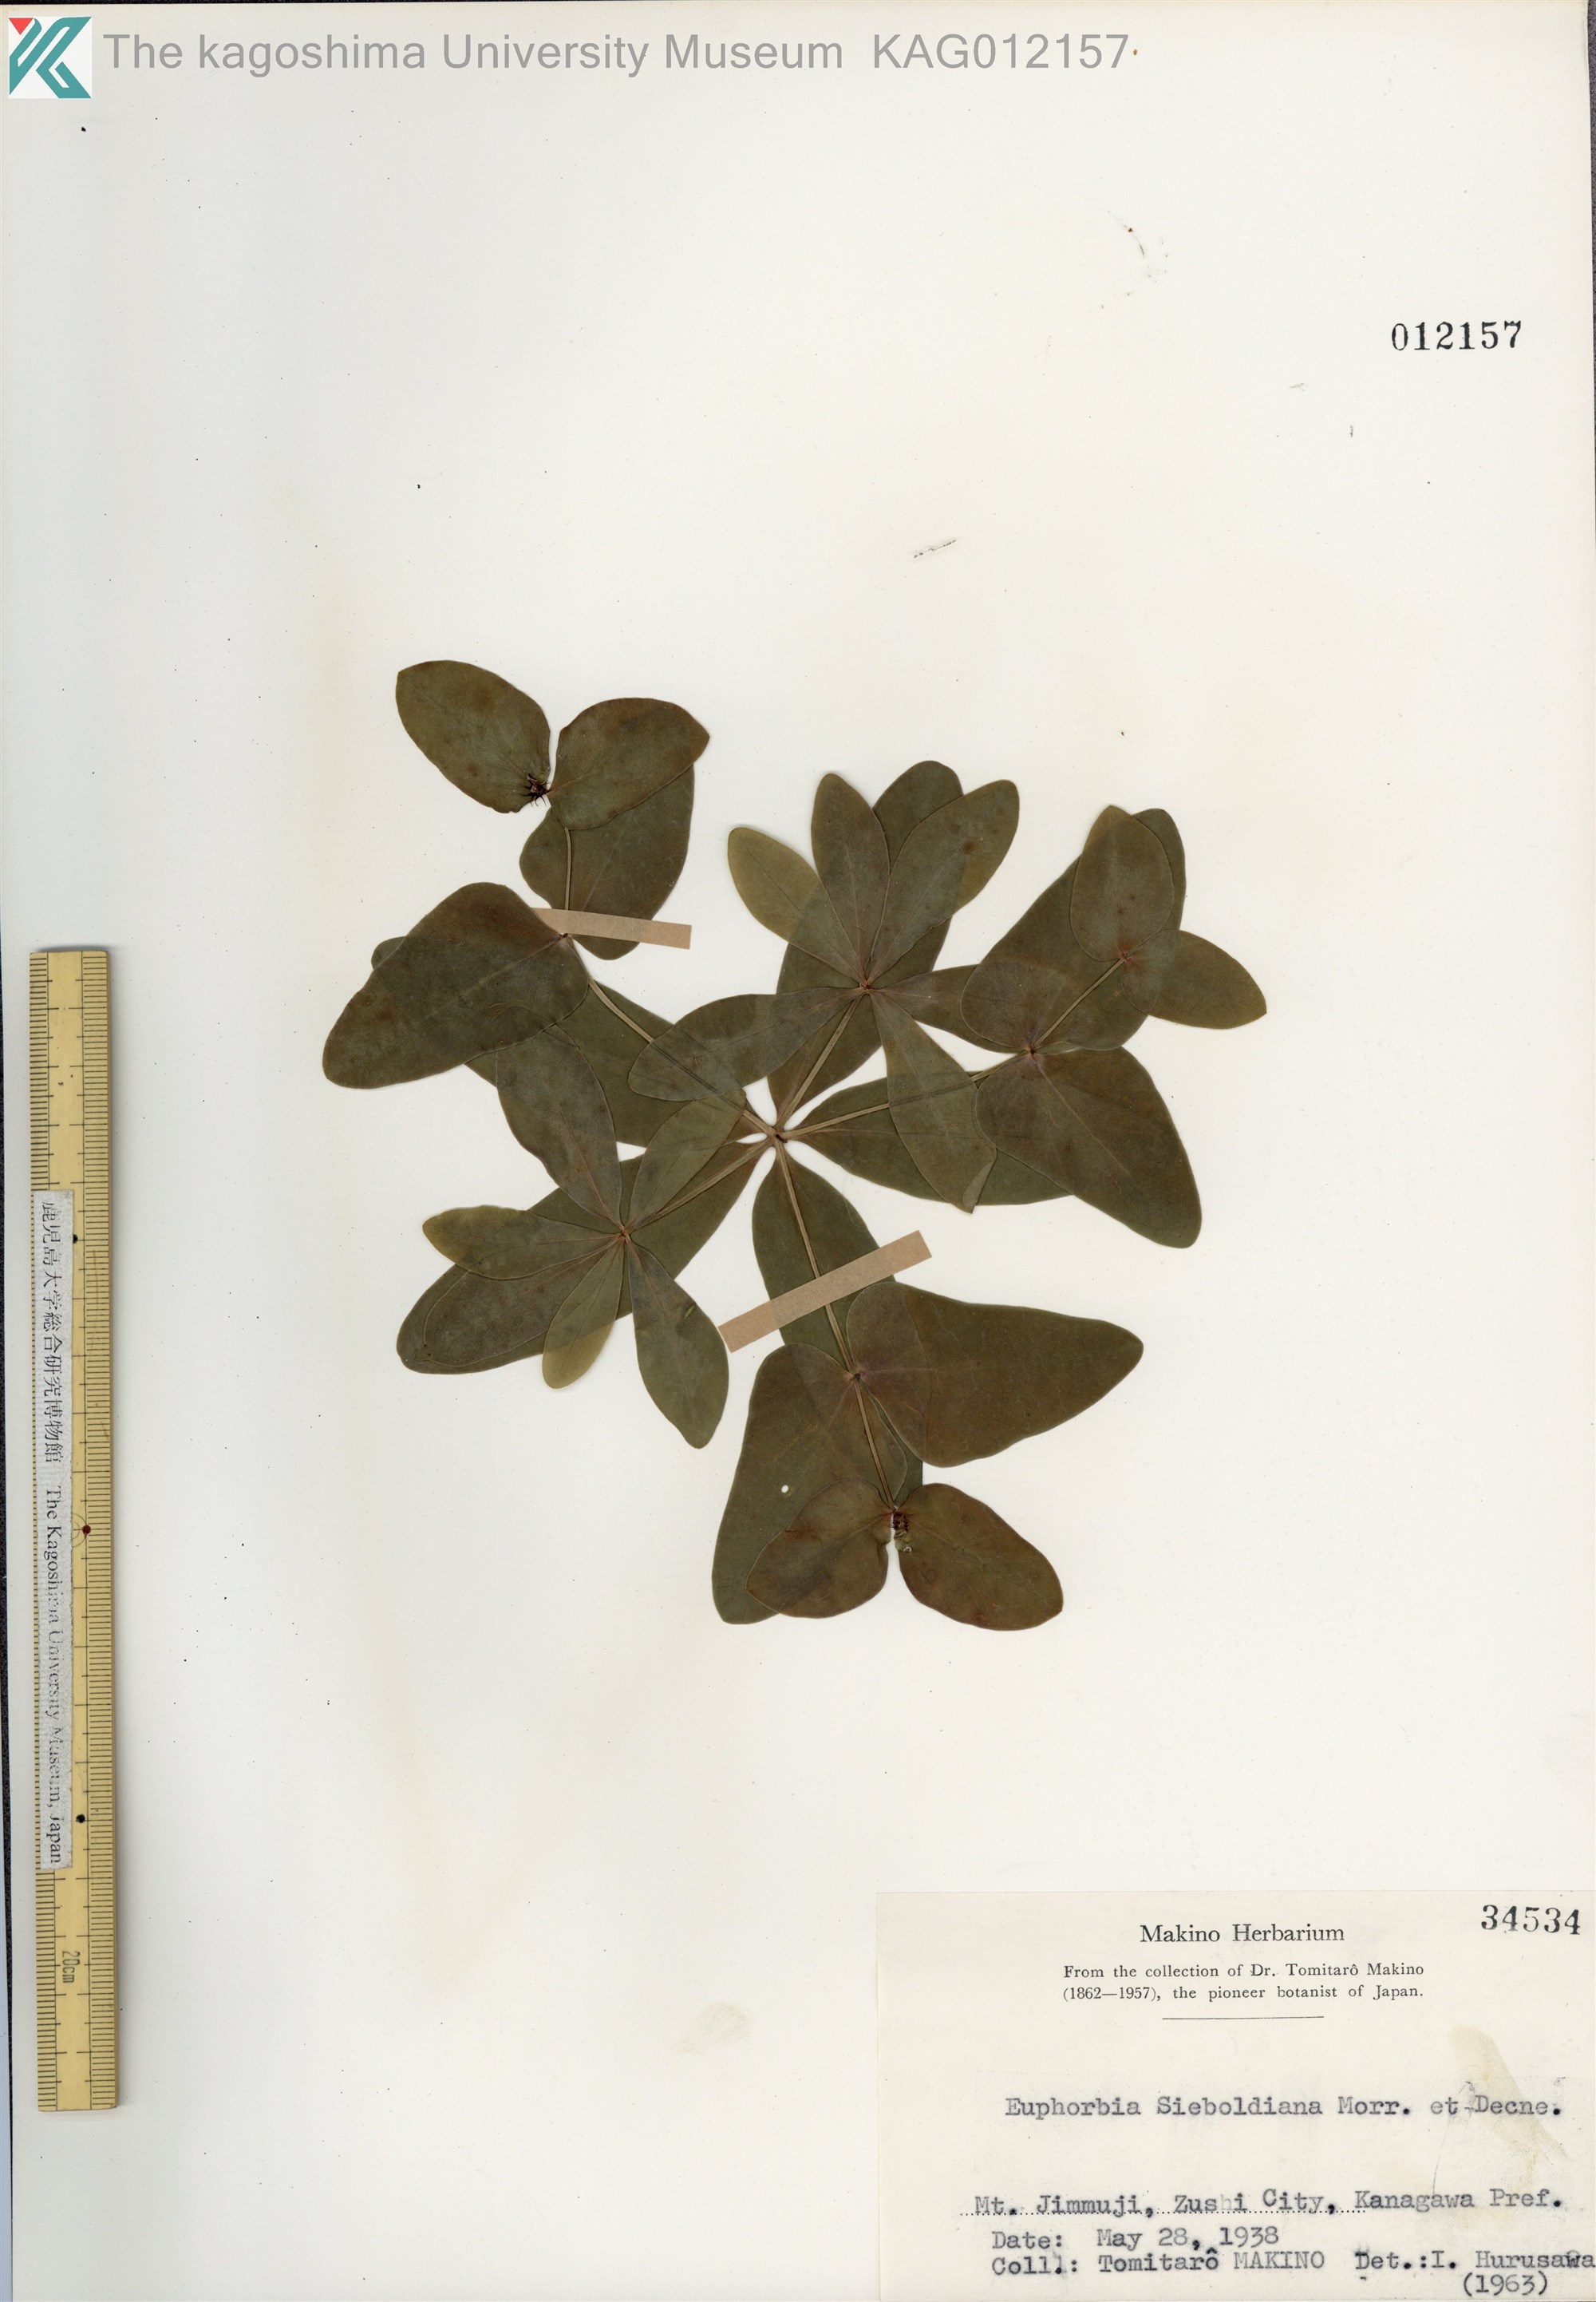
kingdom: Plantae
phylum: Tracheophyta
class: Magnoliopsida
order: Malpighiales
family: Euphorbiaceae
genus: Euphorbia
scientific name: Euphorbia sieboldiana
